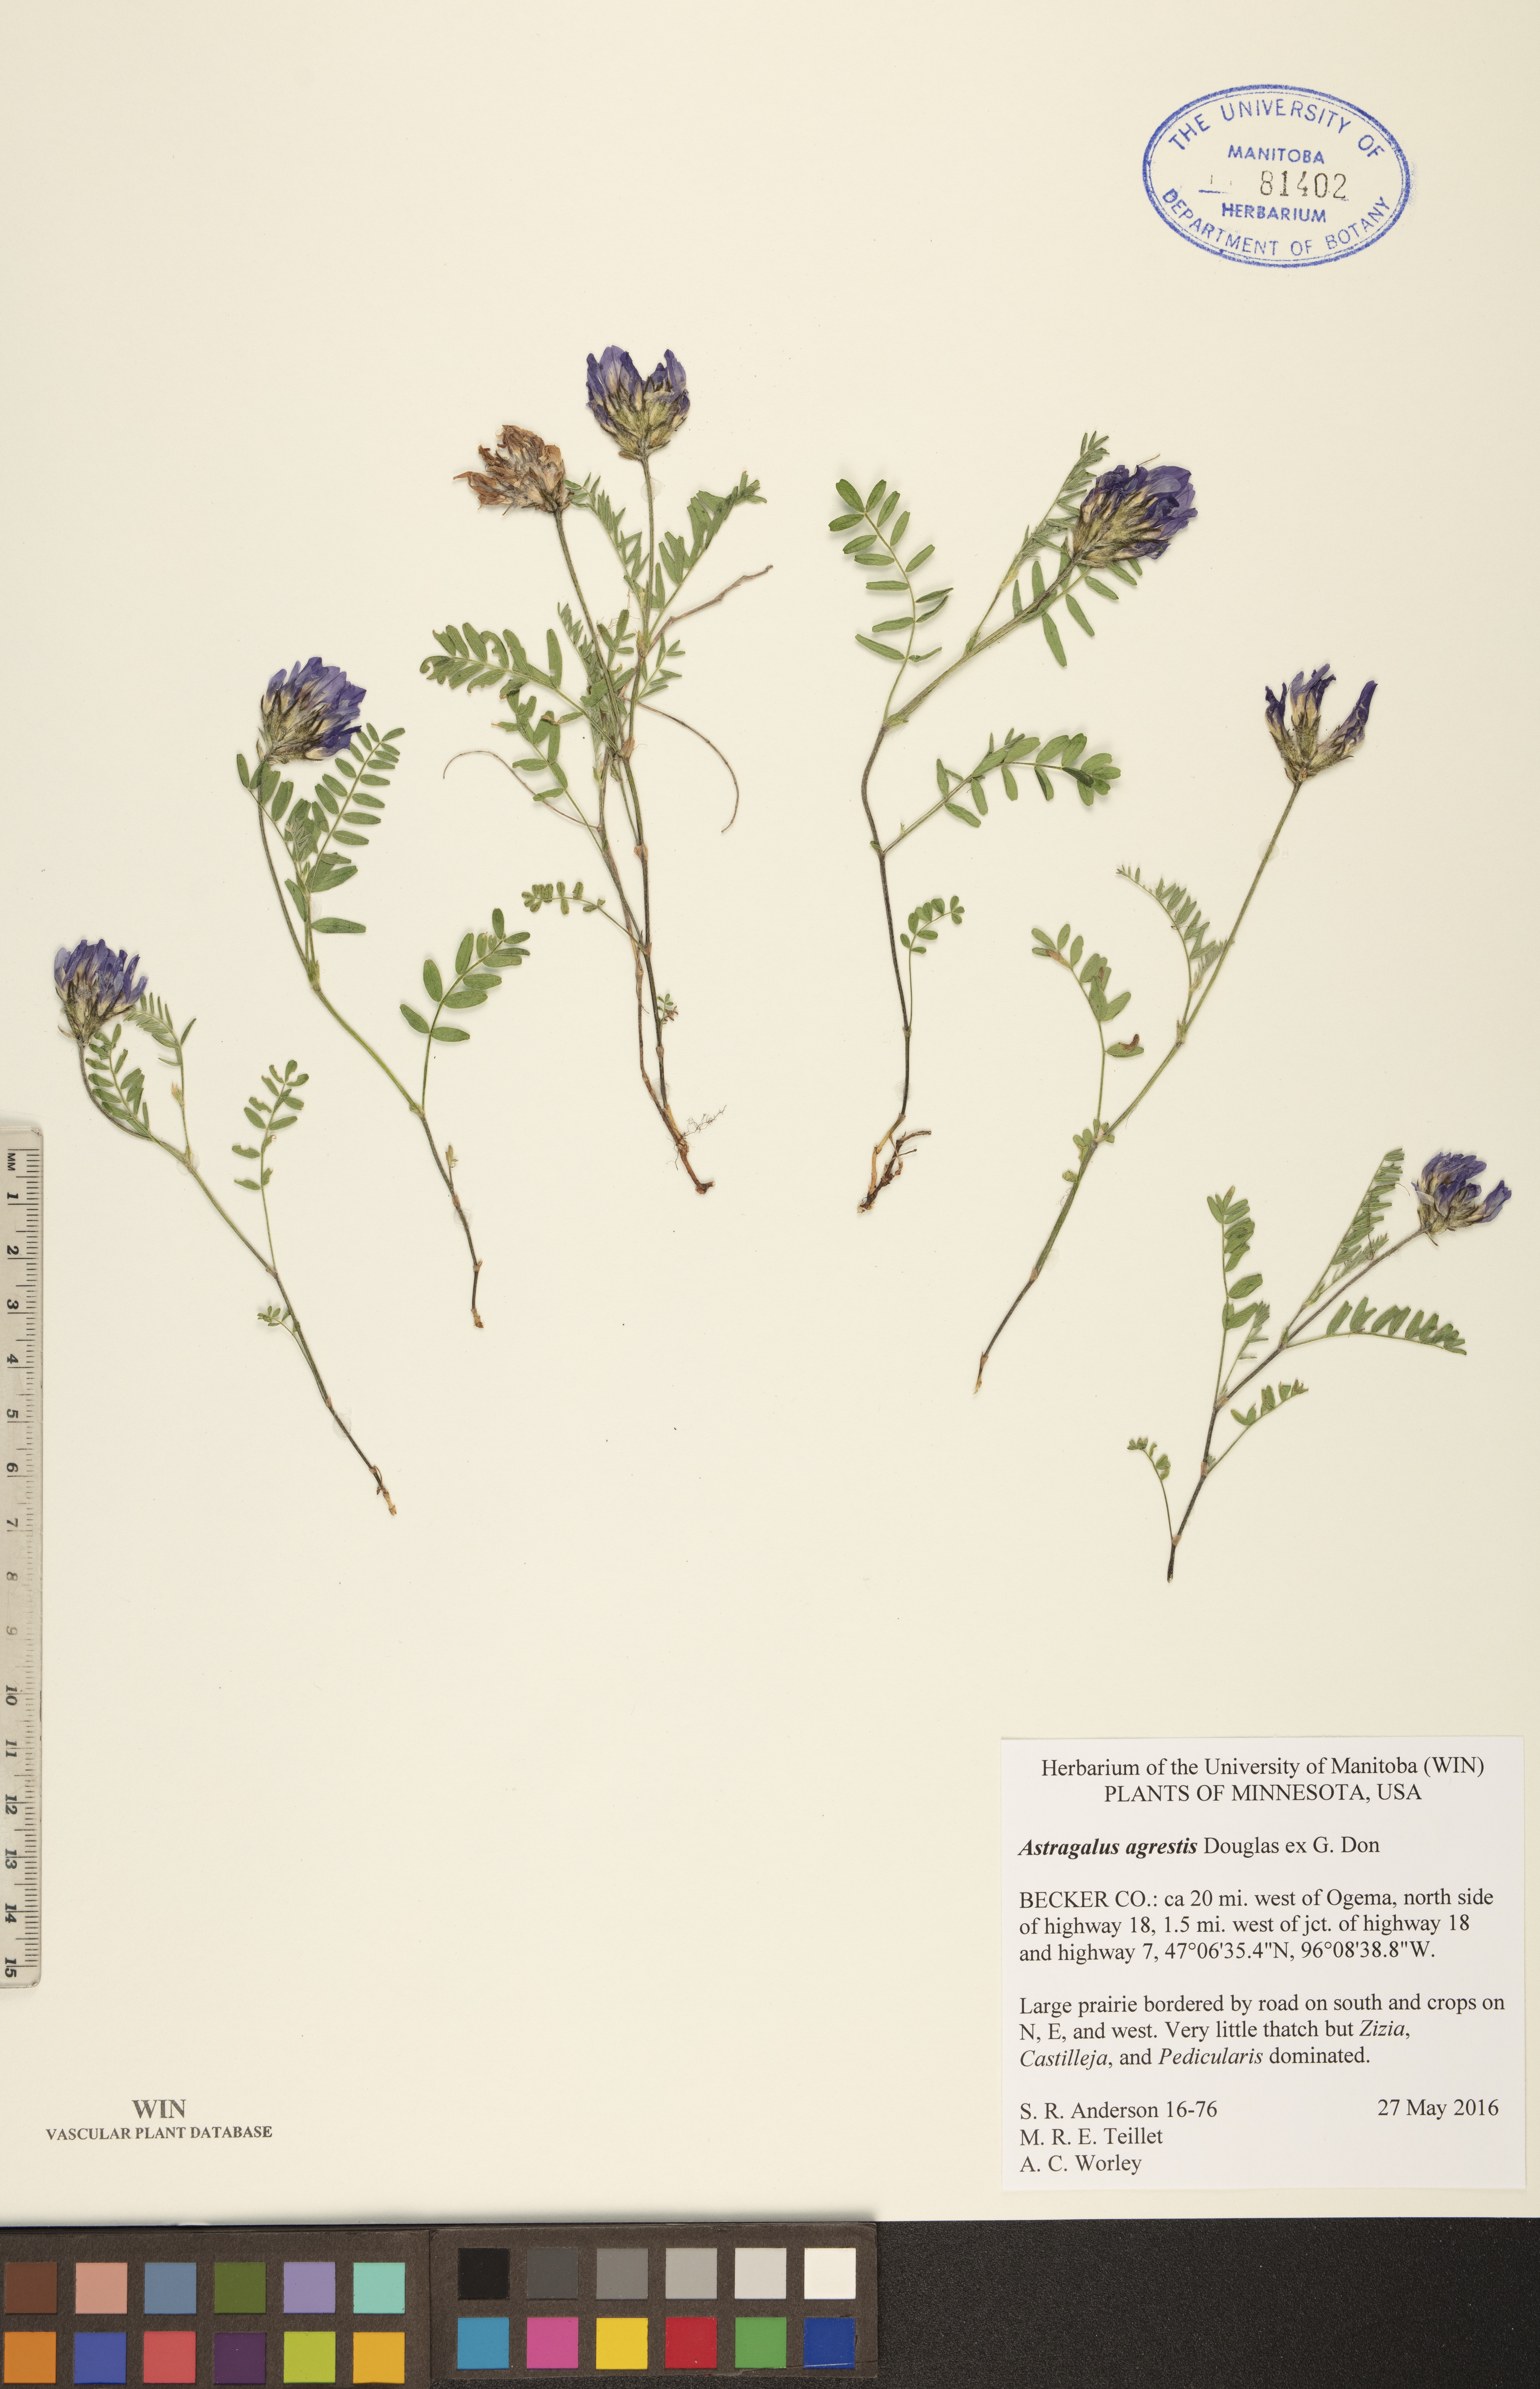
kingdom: Plantae
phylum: Tracheophyta
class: Magnoliopsida
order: Fabales
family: Fabaceae
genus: Astragalus
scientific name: Astragalus agrestis
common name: Field milk-vetch
